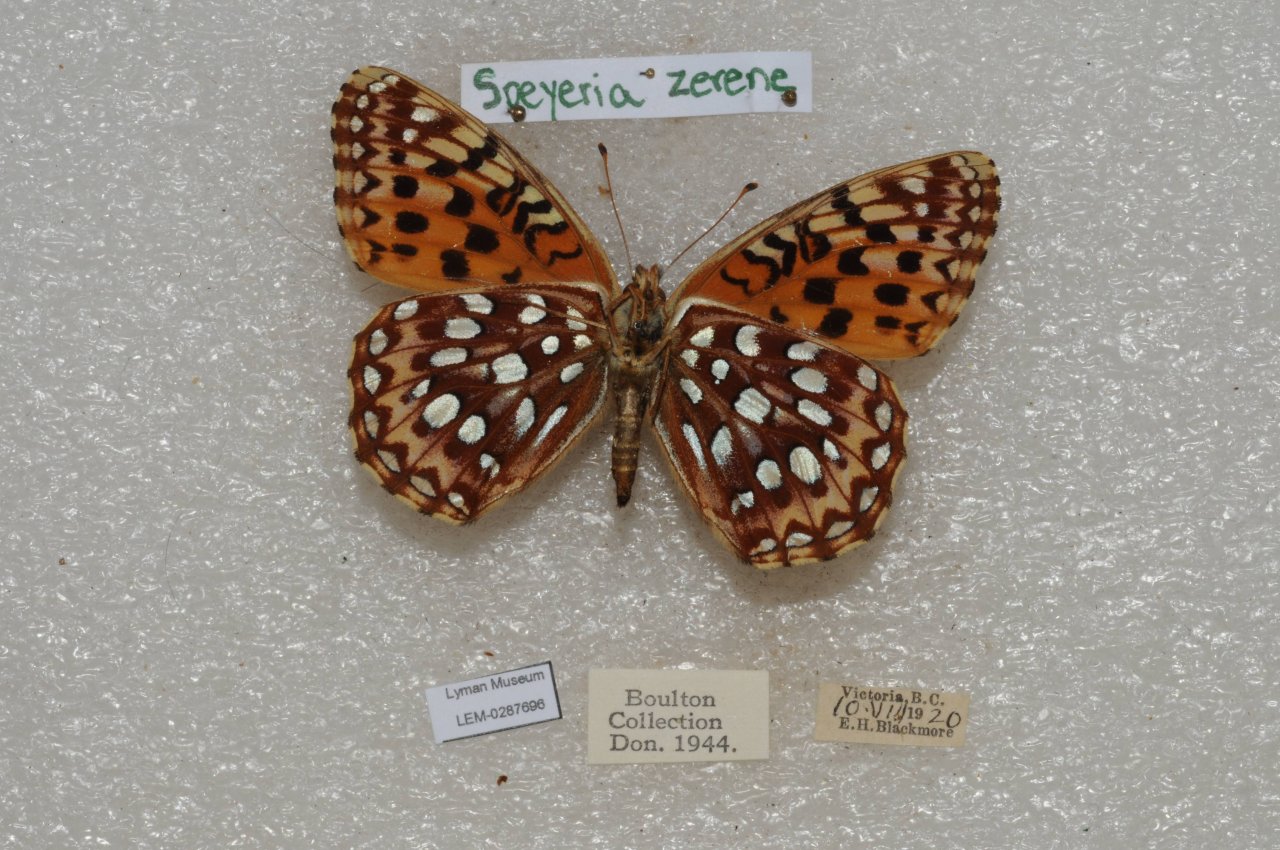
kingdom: Animalia
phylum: Arthropoda
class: Insecta
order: Lepidoptera
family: Nymphalidae
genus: Speyeria
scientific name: Speyeria zerene
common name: Zerene Fritillary
